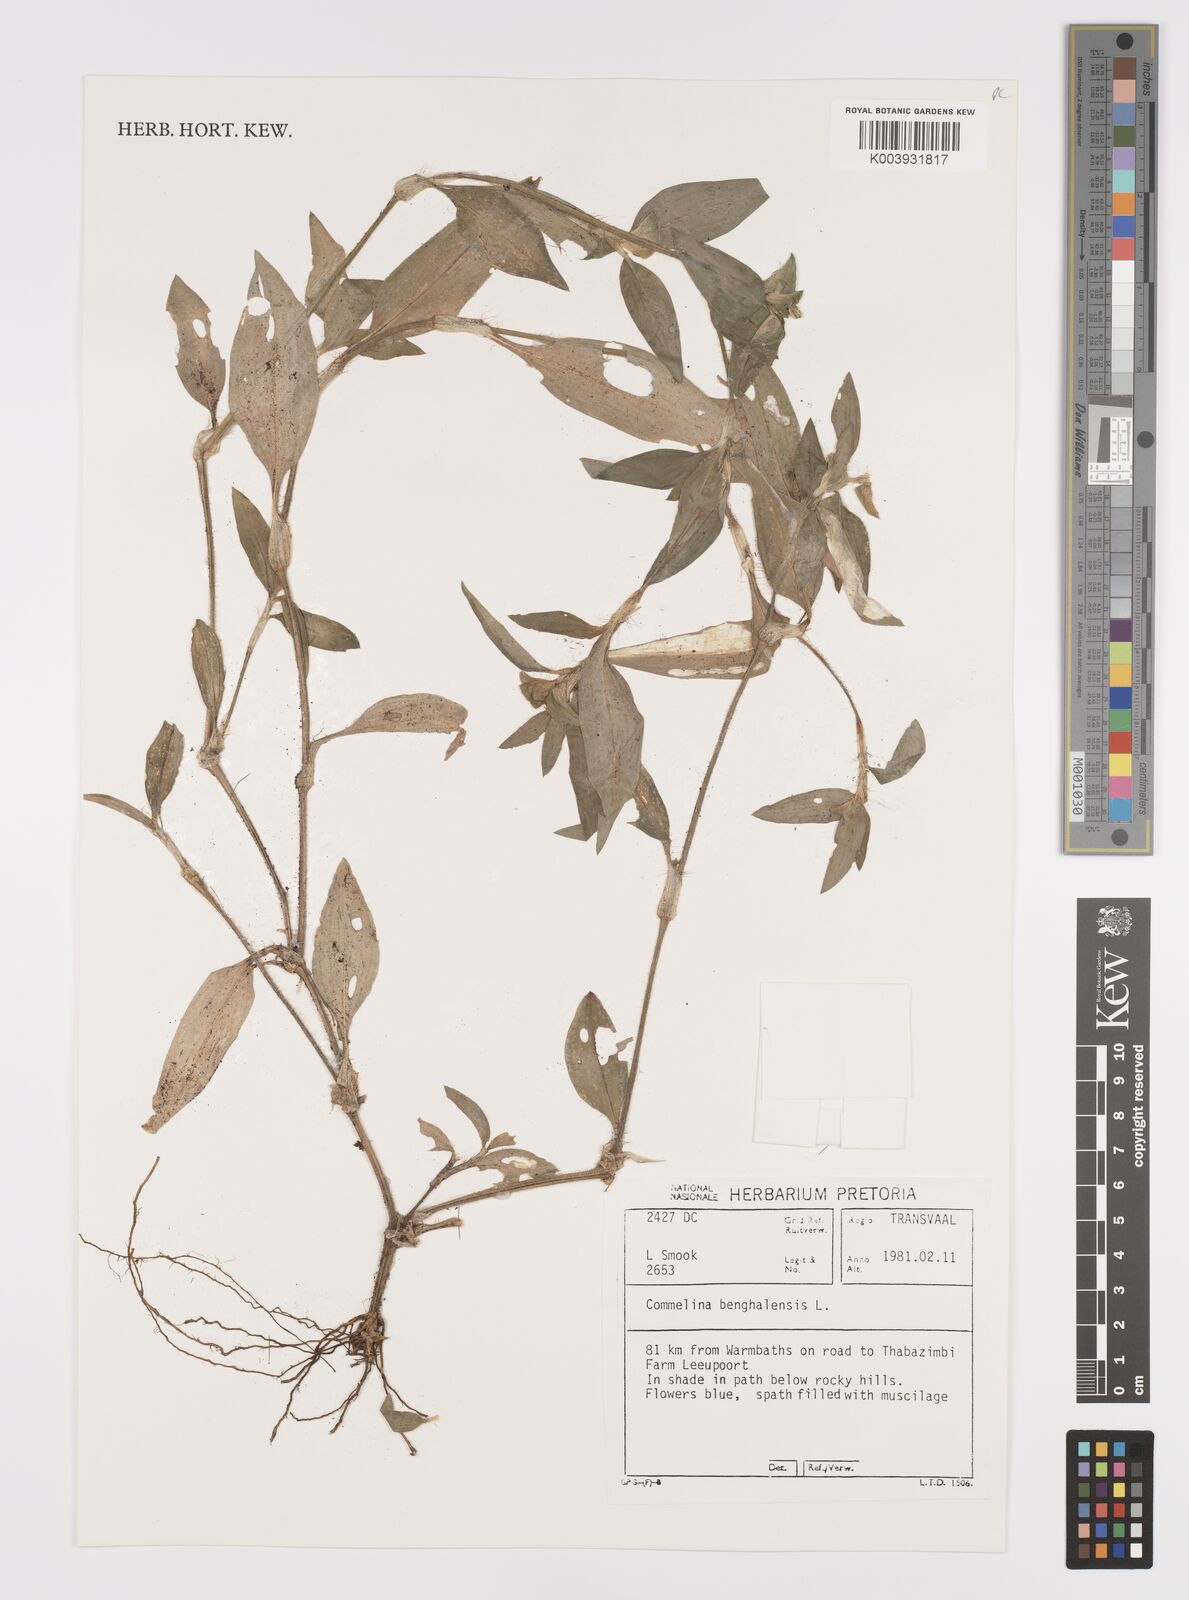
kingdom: Plantae
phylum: Tracheophyta
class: Liliopsida
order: Commelinales
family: Commelinaceae
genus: Commelina
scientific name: Commelina benghalensis
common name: Jio
